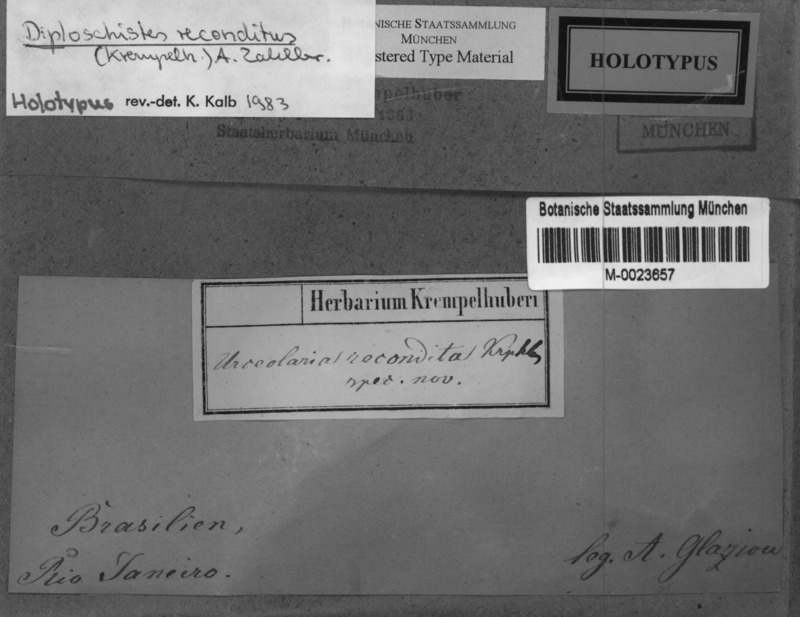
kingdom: Fungi
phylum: Ascomycota
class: Lecanoromycetes
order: Ostropales
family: Graphidaceae
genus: Rhabdodiscus
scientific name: Rhabdodiscus reconditus
